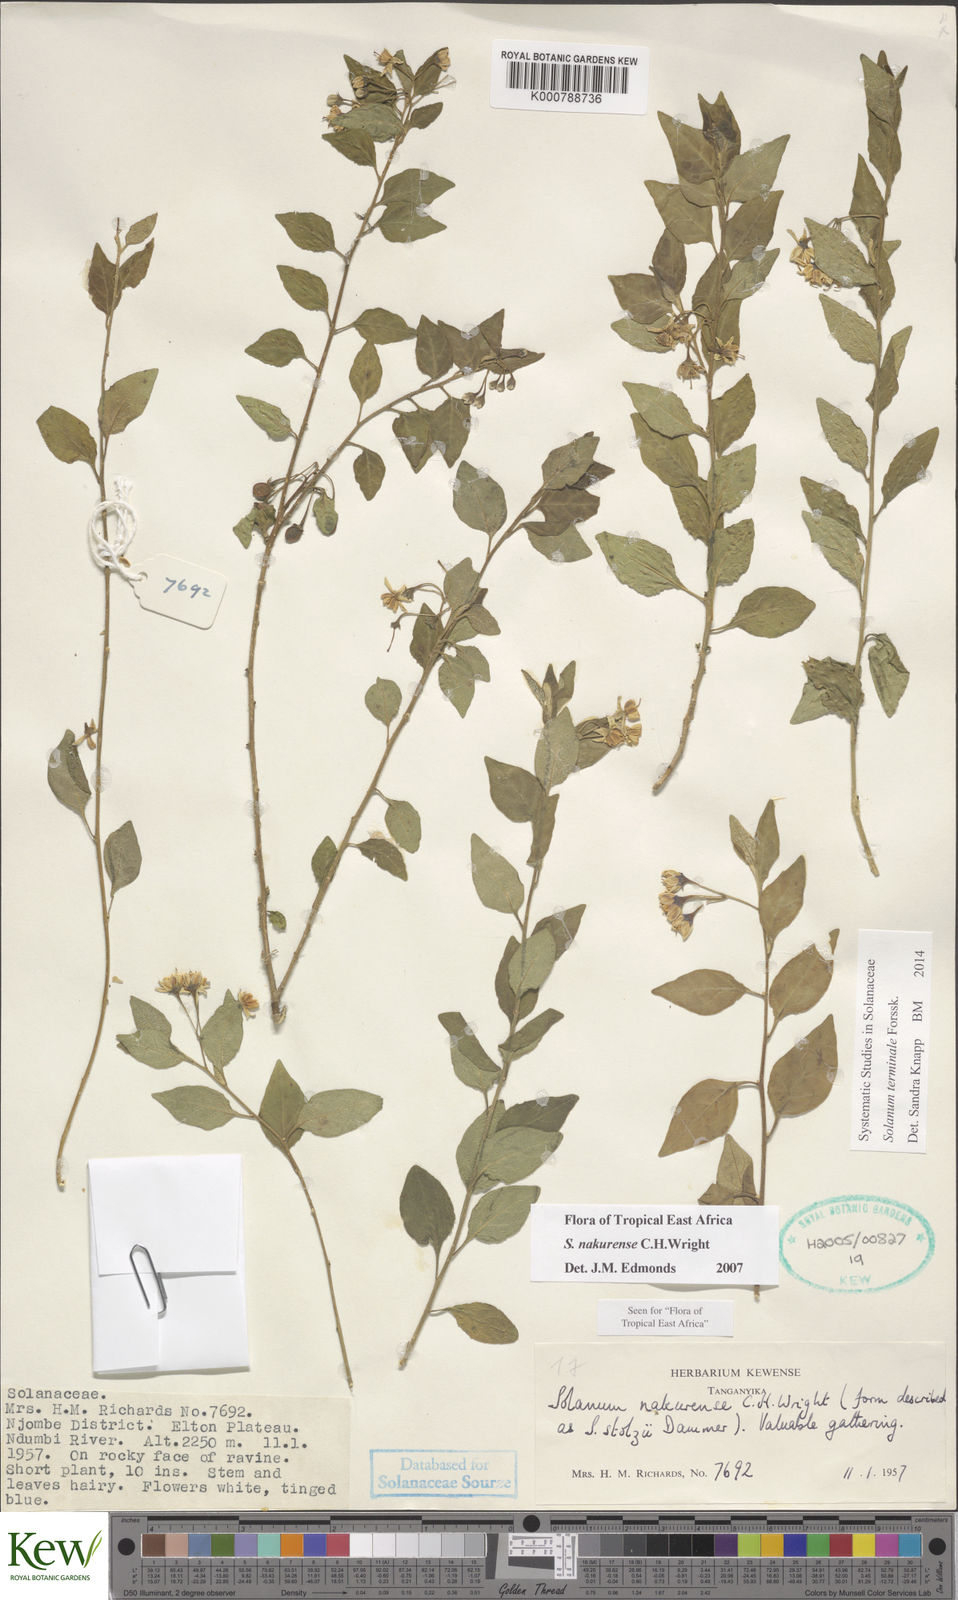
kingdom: Plantae
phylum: Tracheophyta
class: Magnoliopsida
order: Solanales
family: Solanaceae
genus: Solanum
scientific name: Solanum terminale
